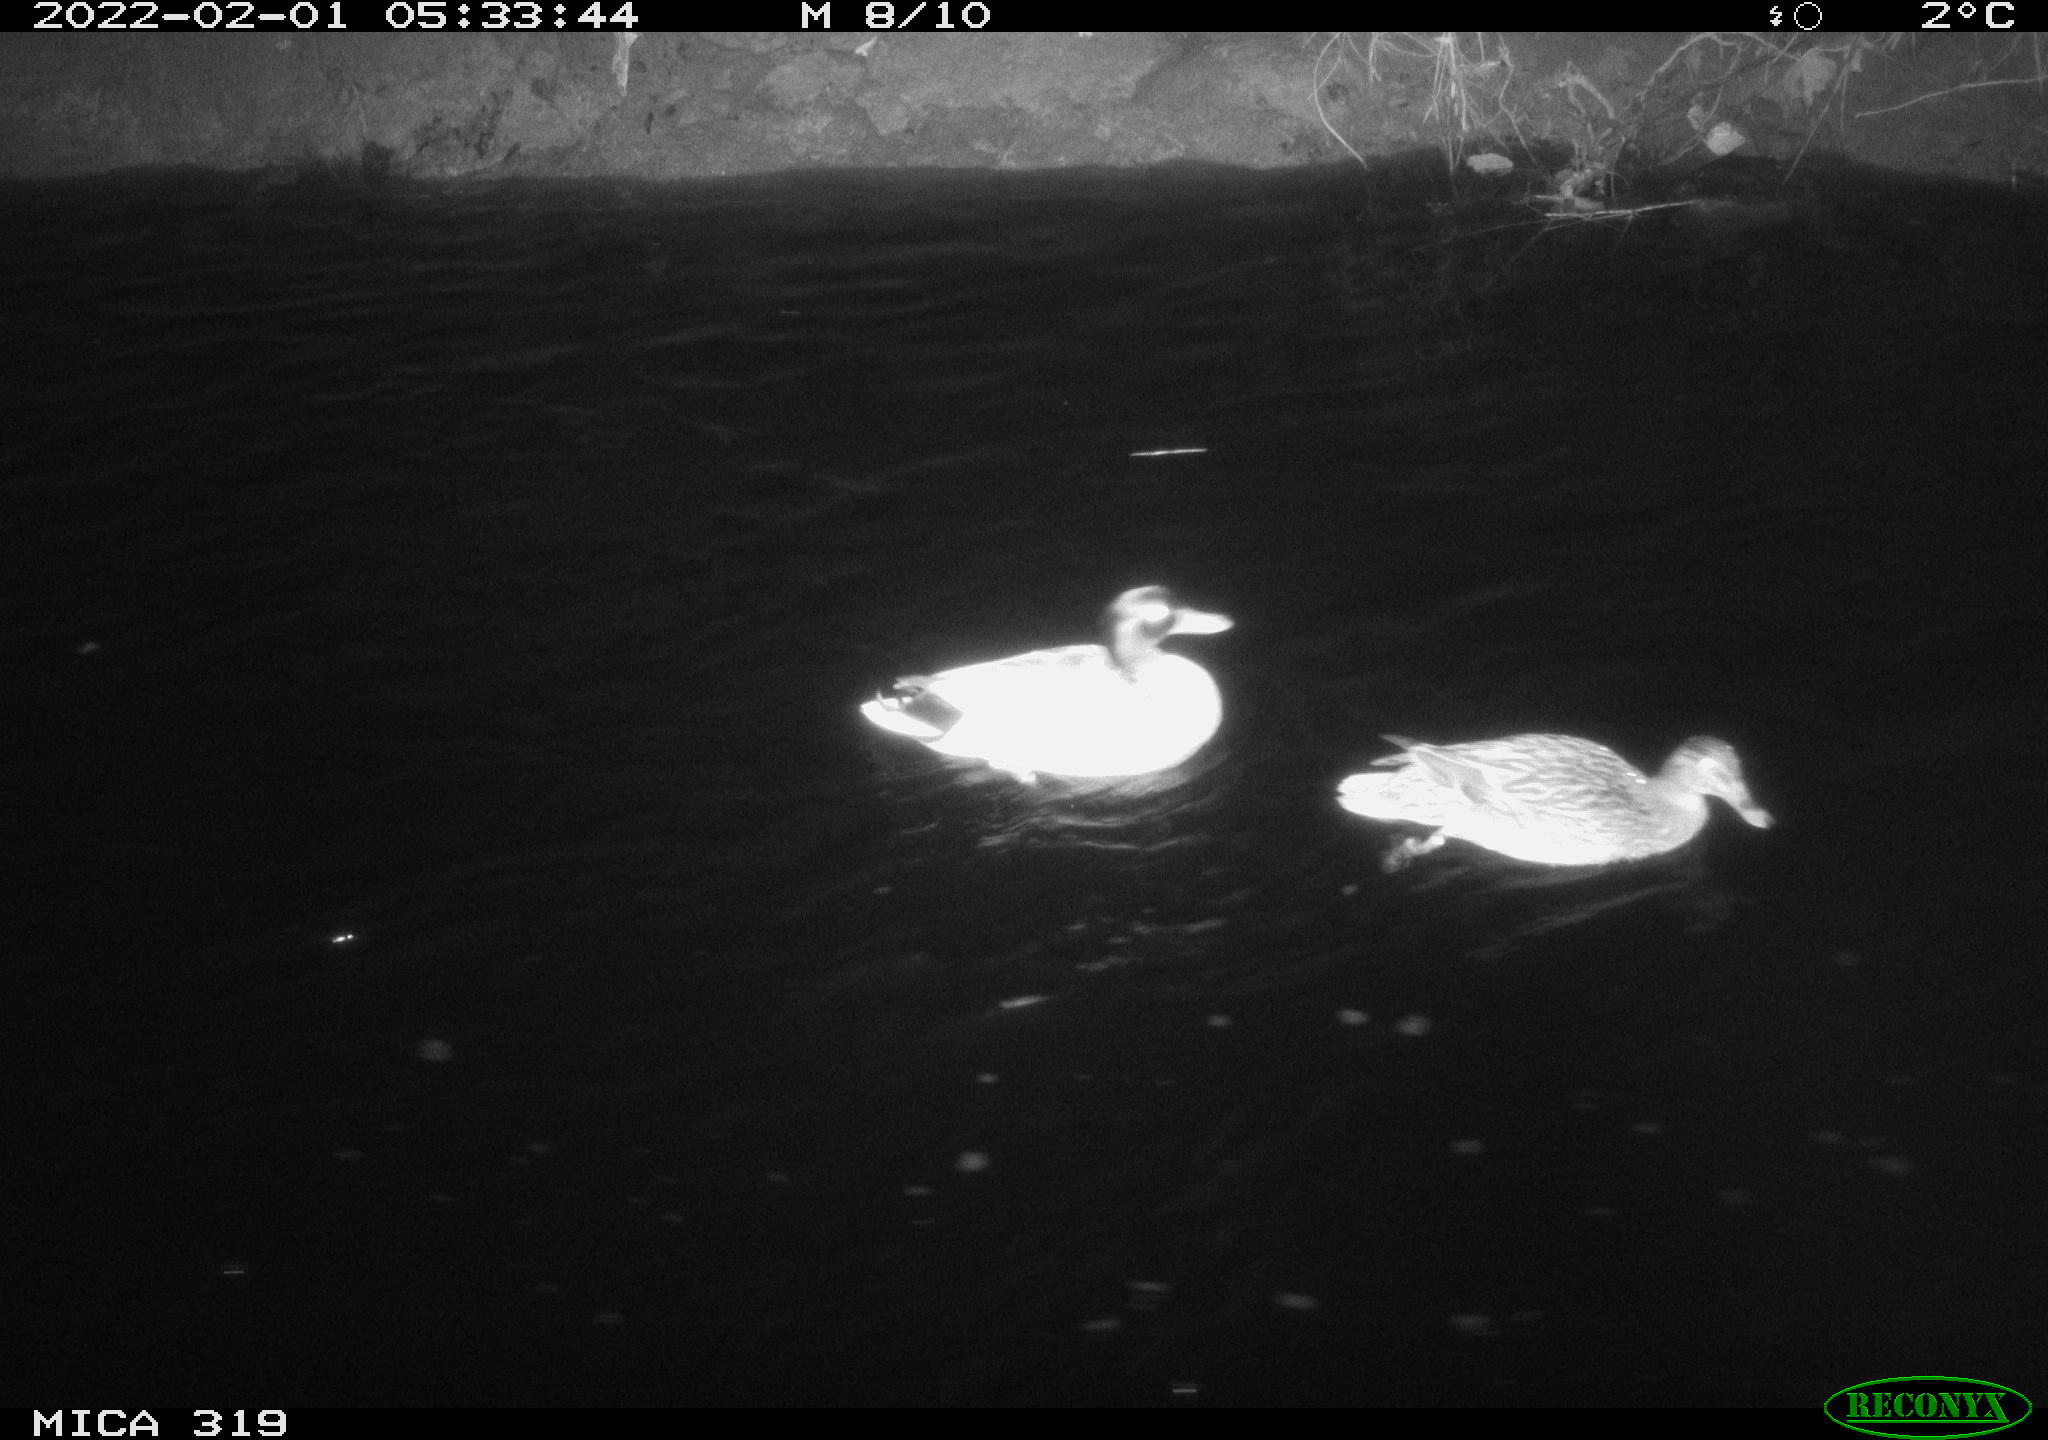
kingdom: Animalia
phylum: Chordata
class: Aves
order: Anseriformes
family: Anatidae
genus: Anas
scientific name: Anas platyrhynchos
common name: Mallard
